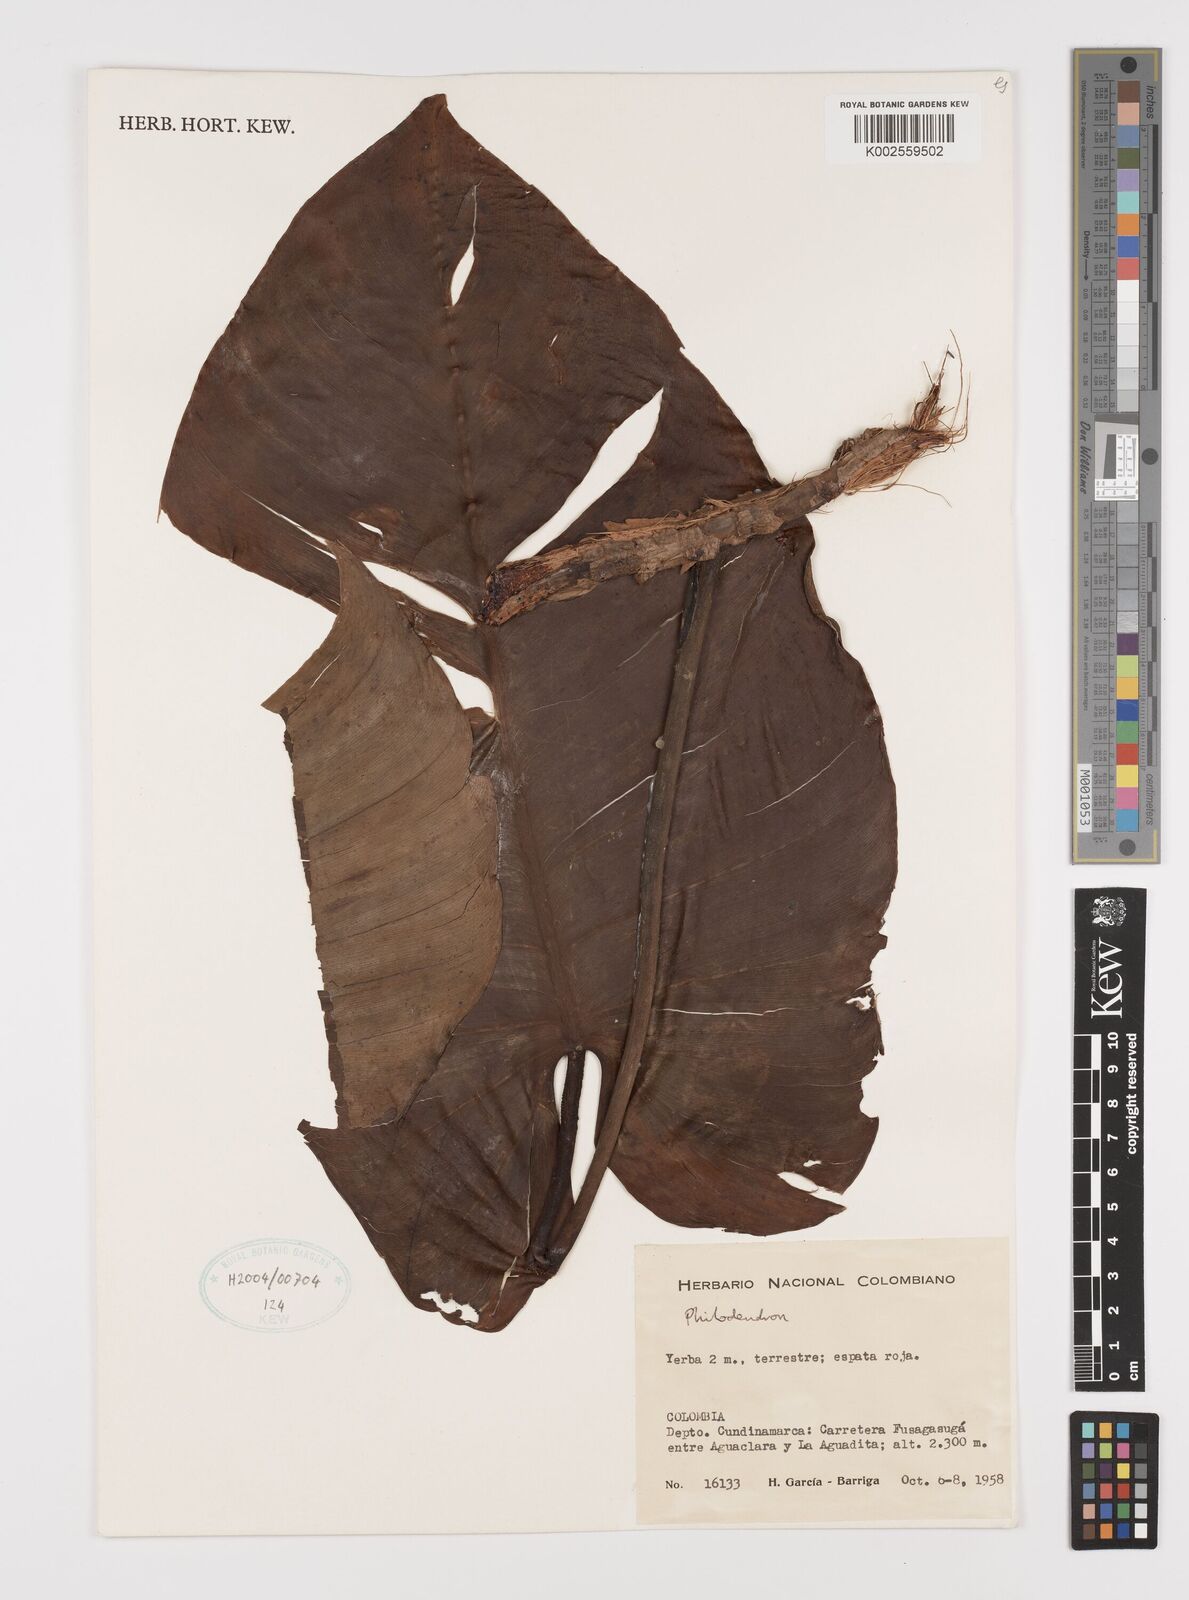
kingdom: Plantae
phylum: Tracheophyta
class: Liliopsida
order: Alismatales
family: Araceae
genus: Philodendron
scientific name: Philodendron
